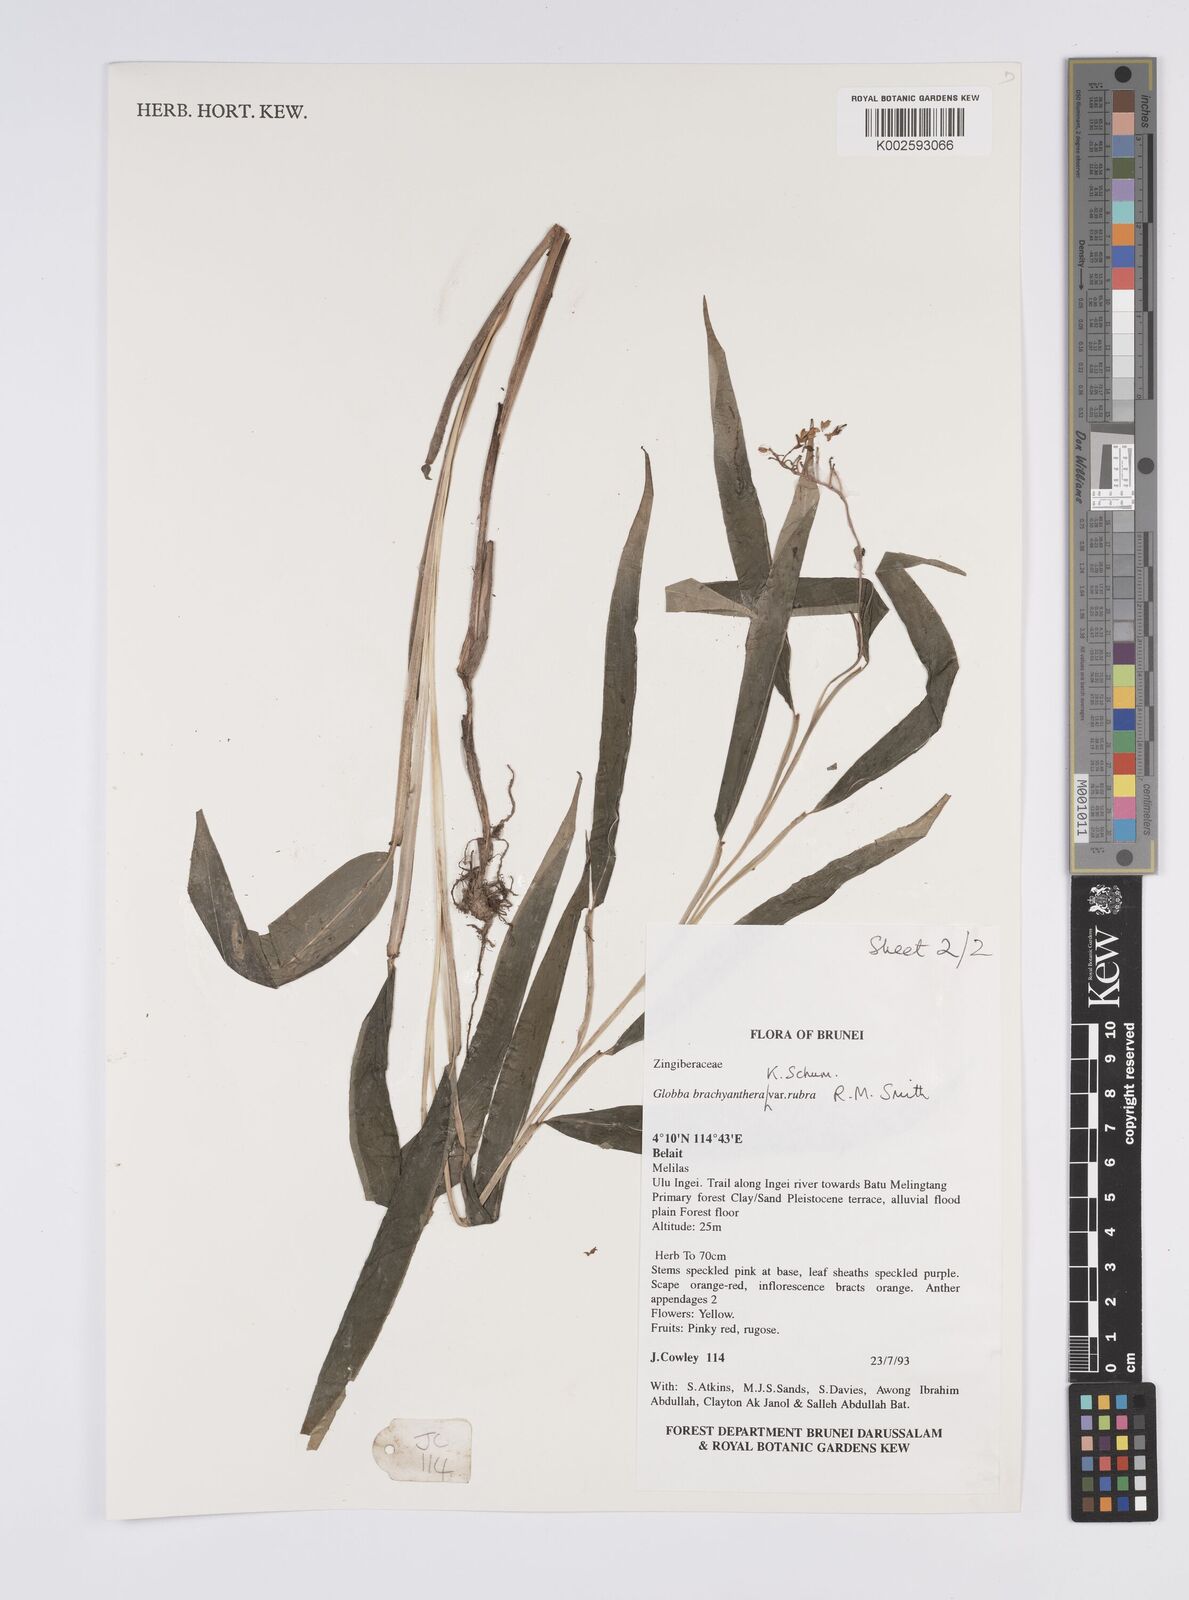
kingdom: Plantae
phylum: Tracheophyta
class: Liliopsida
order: Zingiberales
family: Zingiberaceae
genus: Globba
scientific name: Globba brachyanthera
